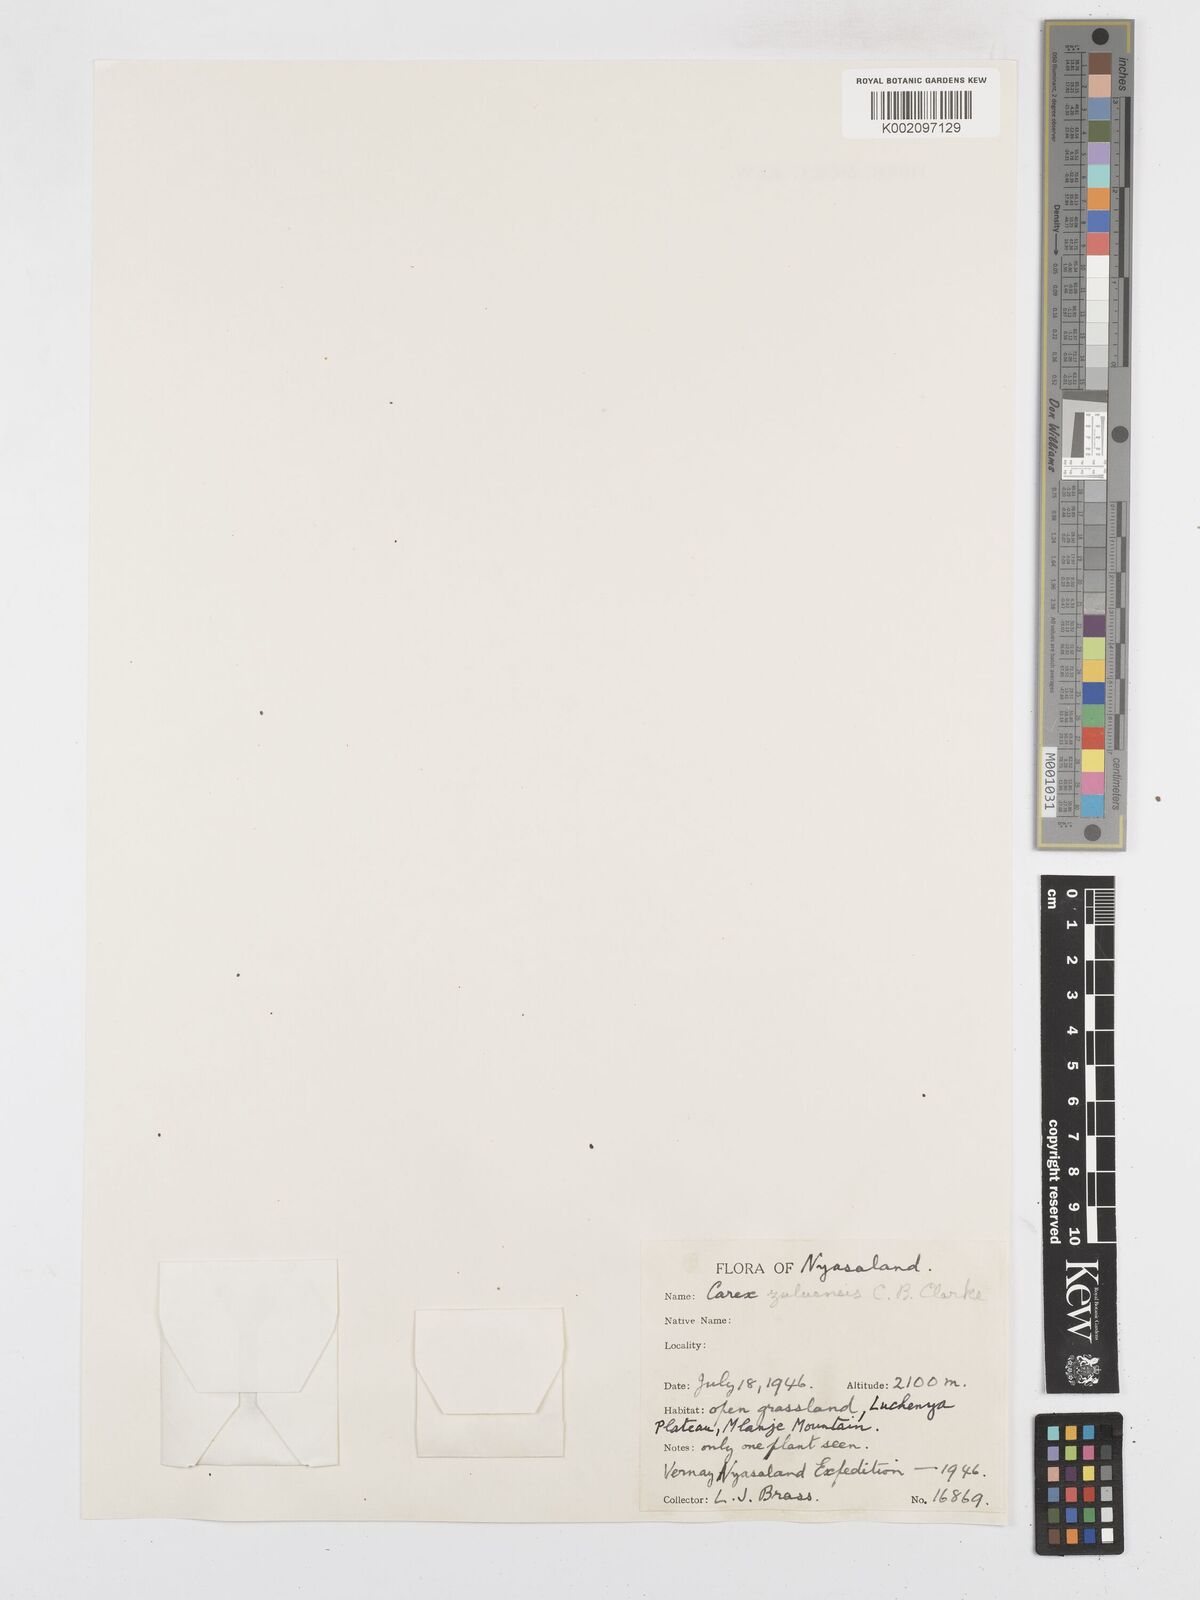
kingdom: Plantae
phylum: Tracheophyta
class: Liliopsida
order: Poales
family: Cyperaceae
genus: Carex
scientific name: Carex steudneri
